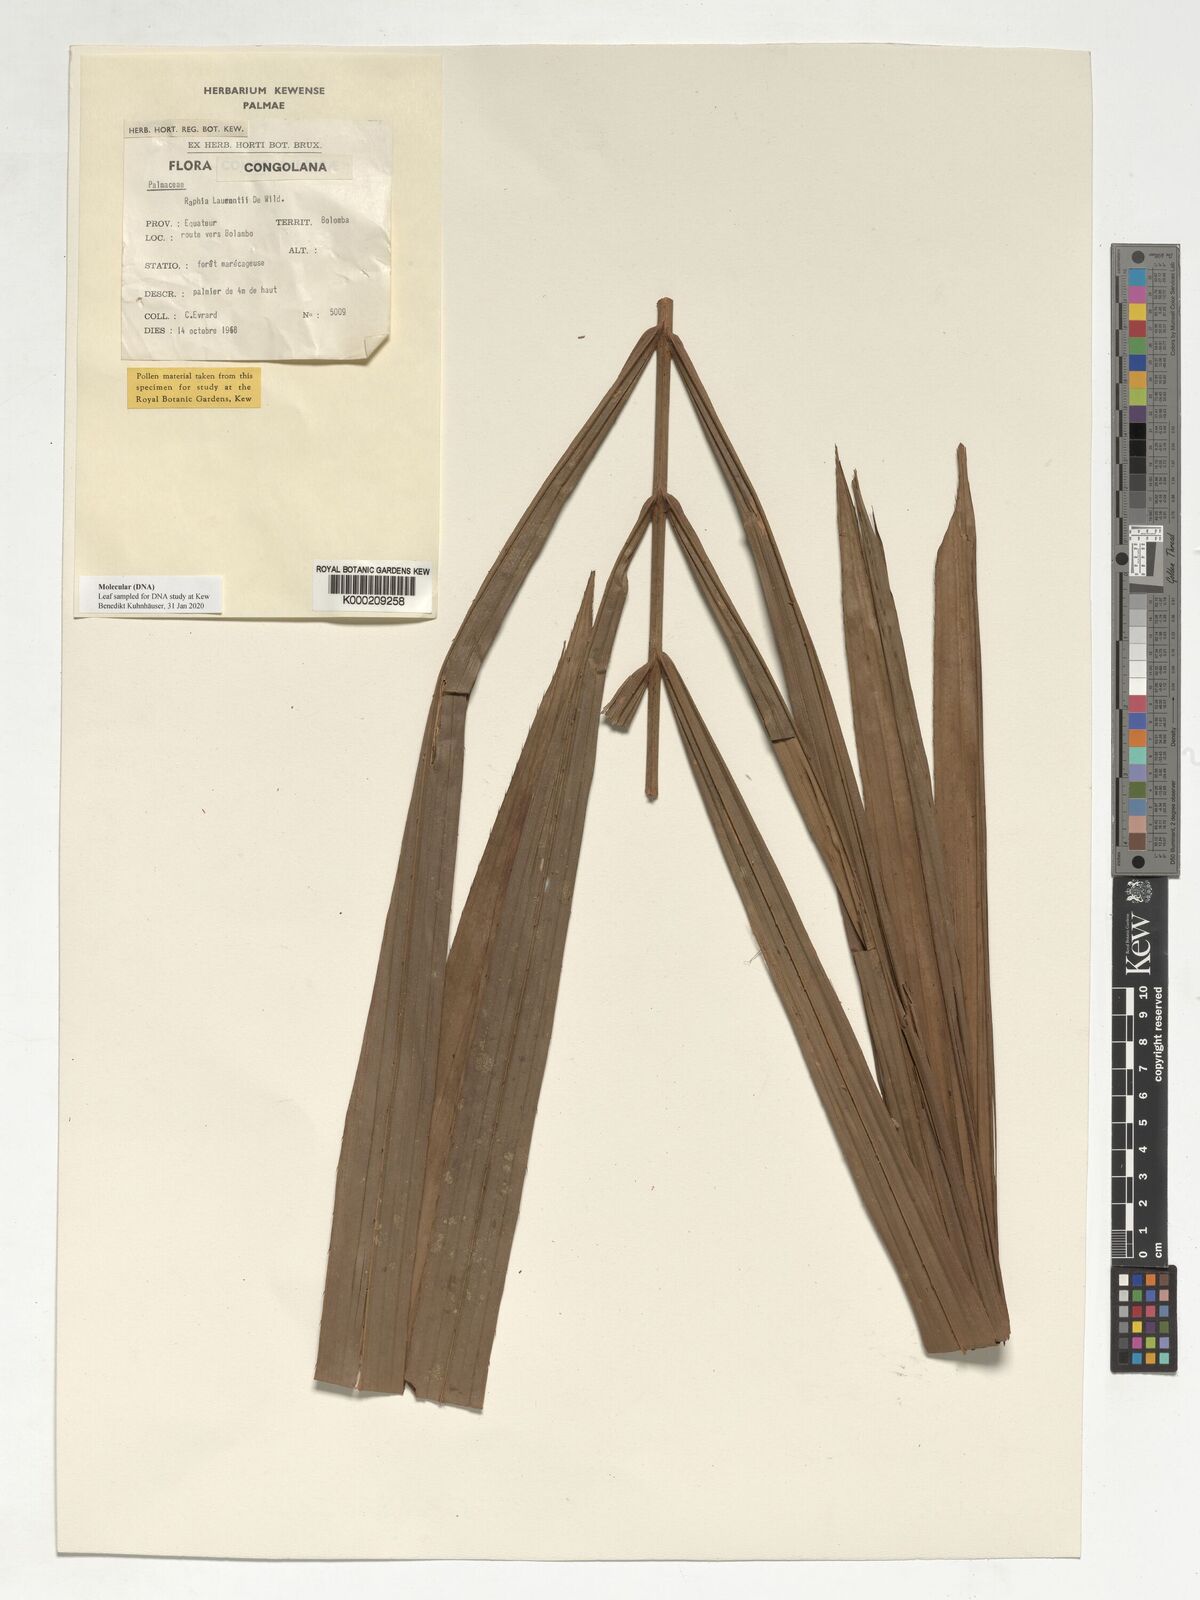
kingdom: Plantae
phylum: Tracheophyta
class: Liliopsida
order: Arecales
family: Arecaceae
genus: Raphia
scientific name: Raphia laurentii
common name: Raphia palm
